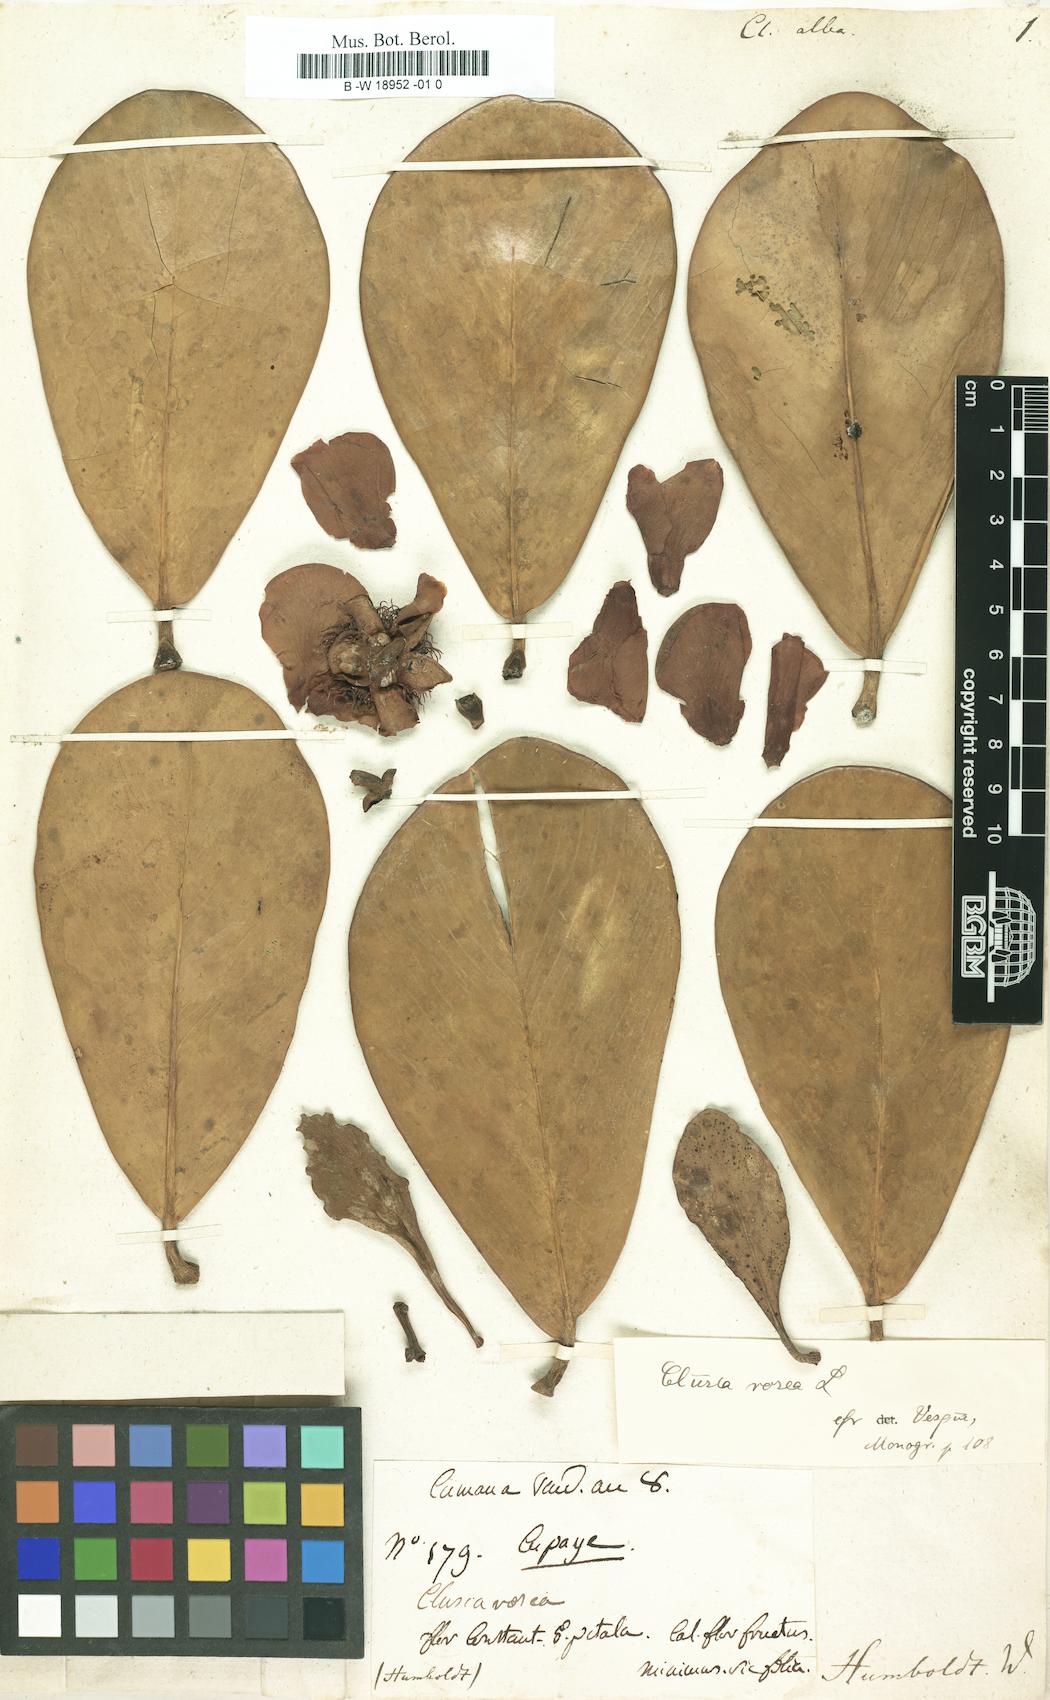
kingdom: Plantae
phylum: Tracheophyta
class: Magnoliopsida
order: Malpighiales
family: Clusiaceae
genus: Clusia
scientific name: Clusia major
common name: Wild mammie
